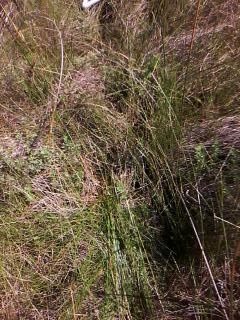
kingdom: Plantae
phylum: Tracheophyta
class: Liliopsida
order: Poales
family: Cyperaceae
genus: Eleocharis
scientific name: Eleocharis rostellata
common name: Walking sedge
